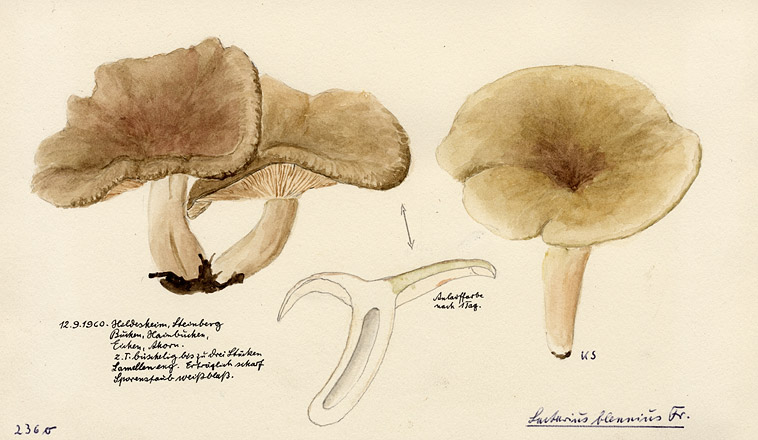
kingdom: Fungi
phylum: Basidiomycota
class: Agaricomycetes
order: Russulales
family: Russulaceae
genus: Lactarius
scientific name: Lactarius blennius
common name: Beech milkcap
